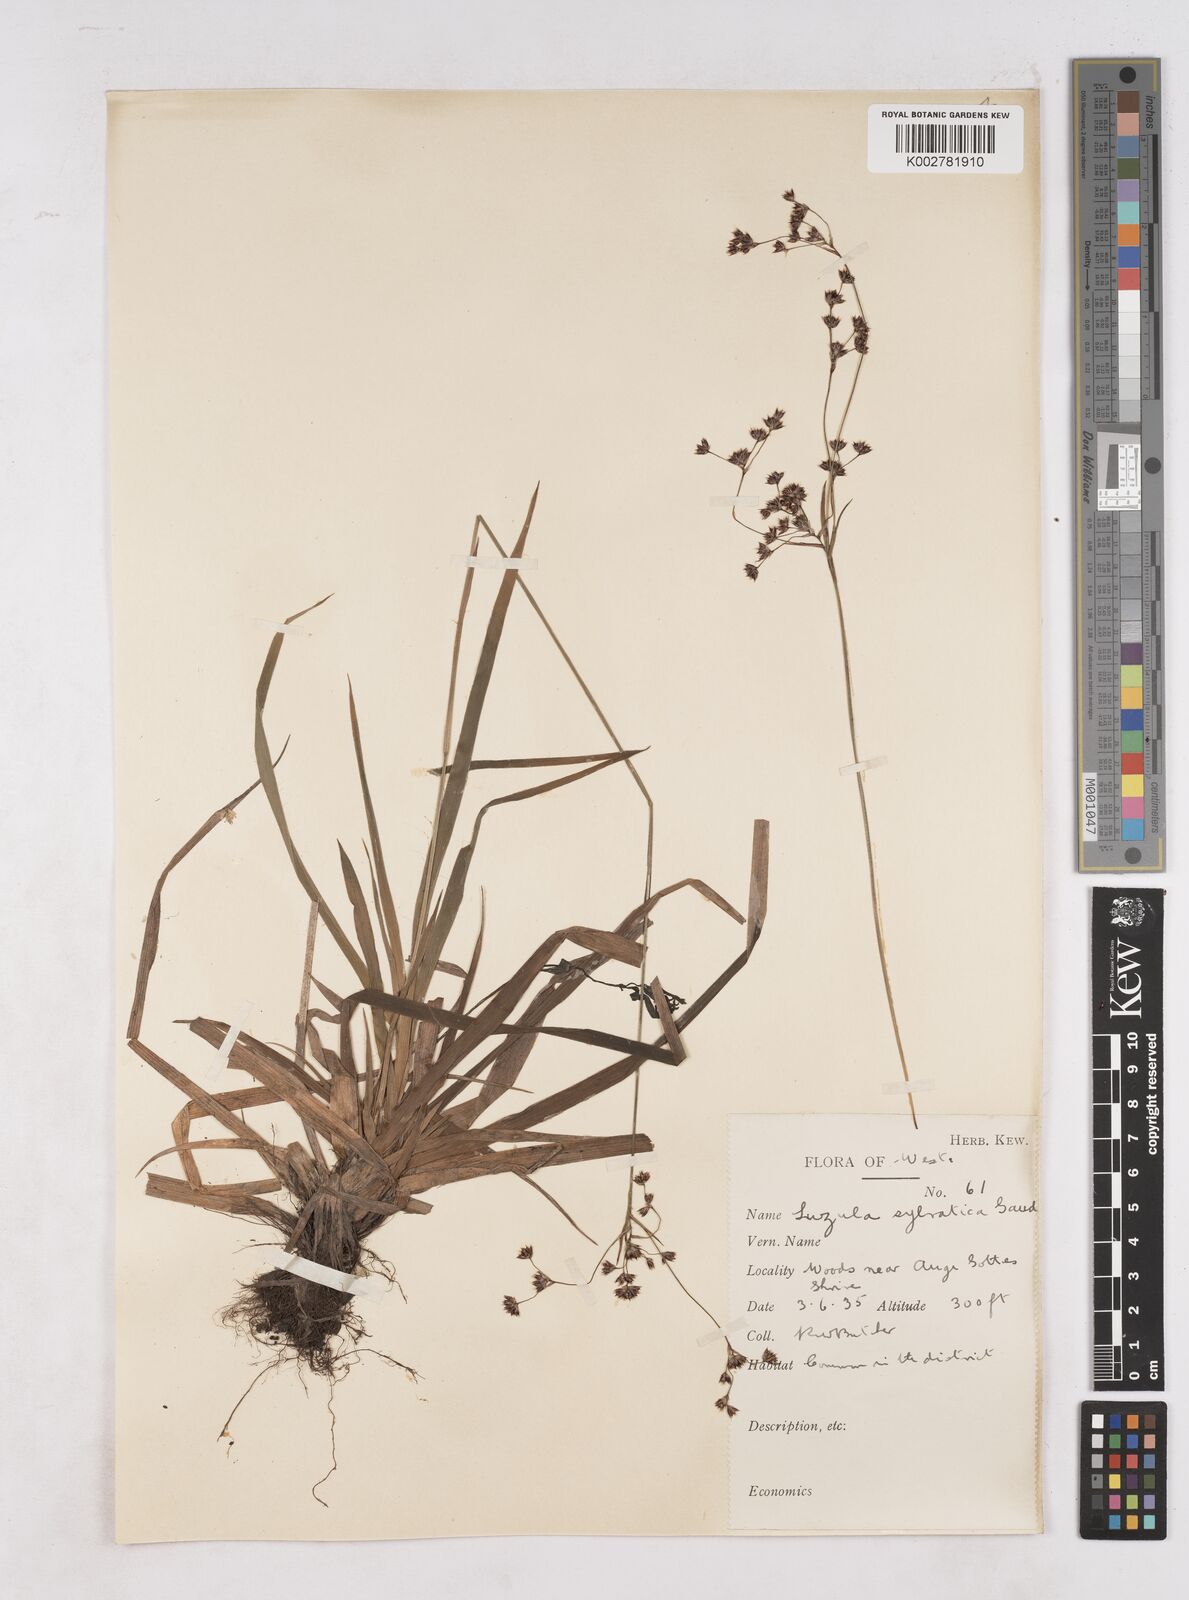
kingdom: Plantae
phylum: Tracheophyta
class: Liliopsida
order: Poales
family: Juncaceae
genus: Luzula
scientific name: Luzula sylvatica
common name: Great wood-rush
